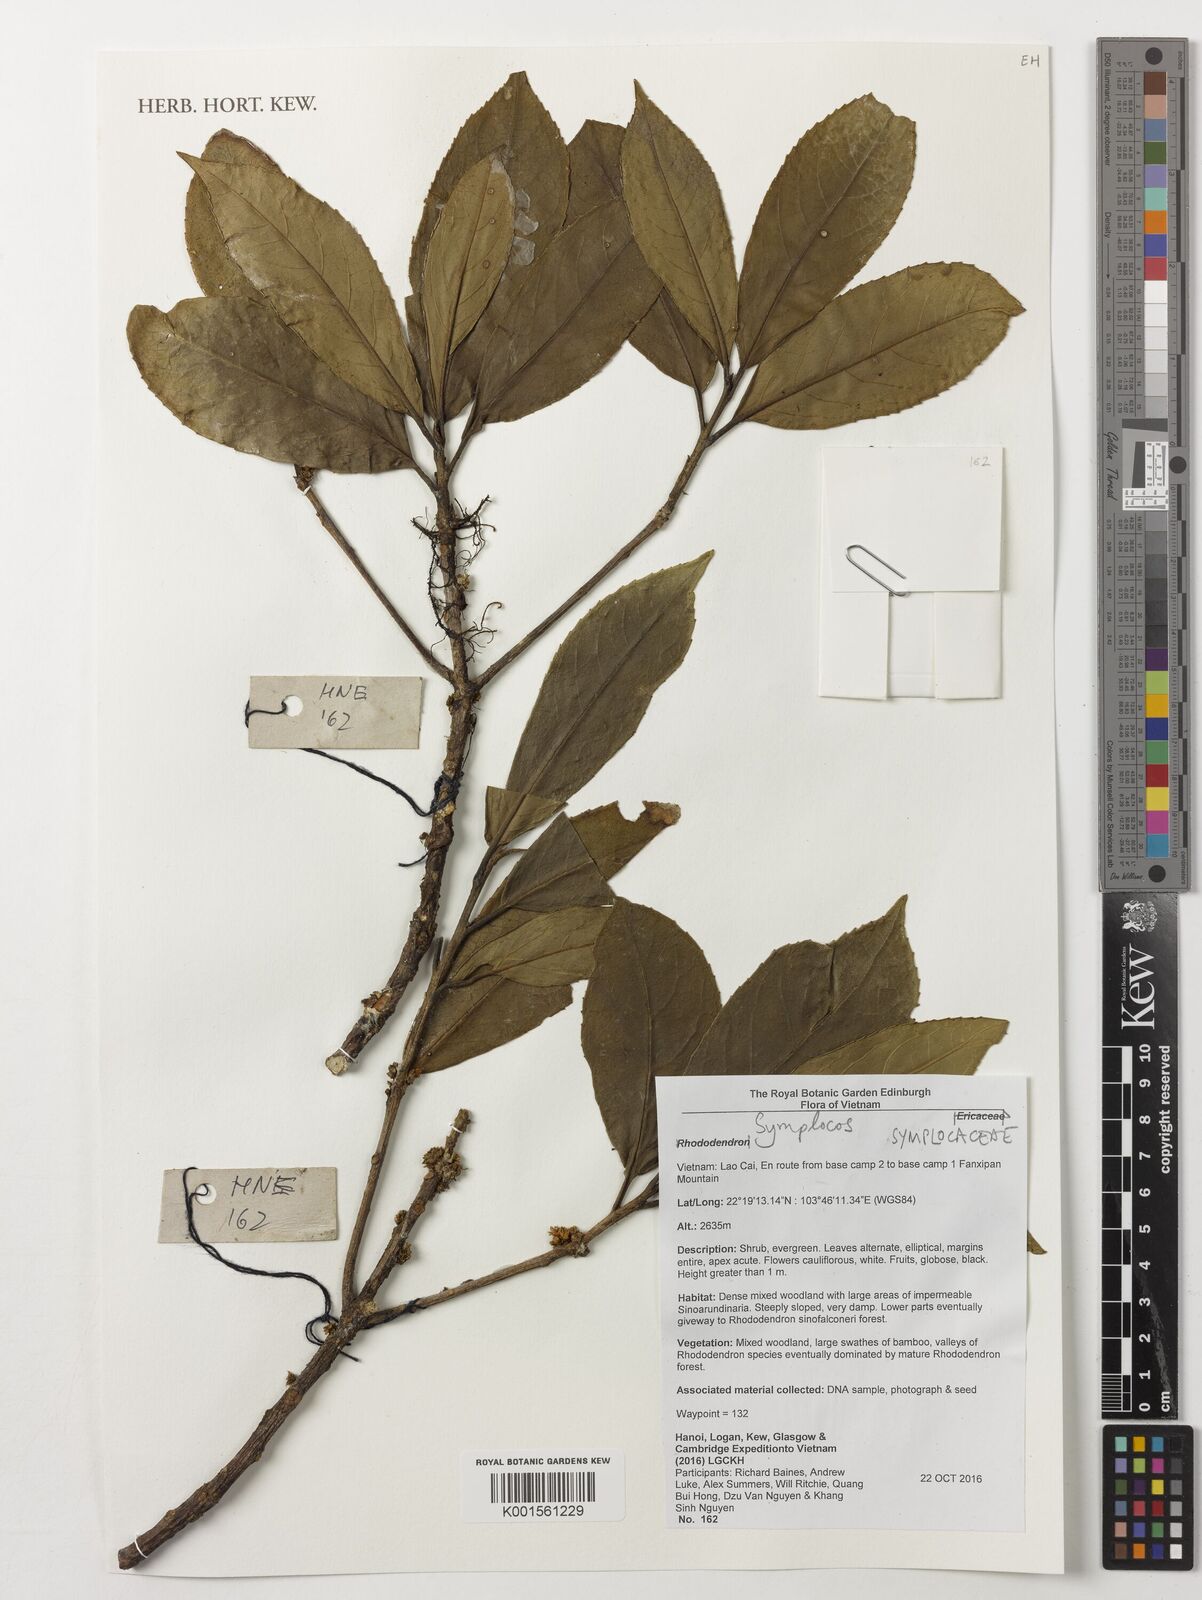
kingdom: Plantae
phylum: Tracheophyta
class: Magnoliopsida
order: Ericales
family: Symplocaceae
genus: Symplocos
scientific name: Symplocos
